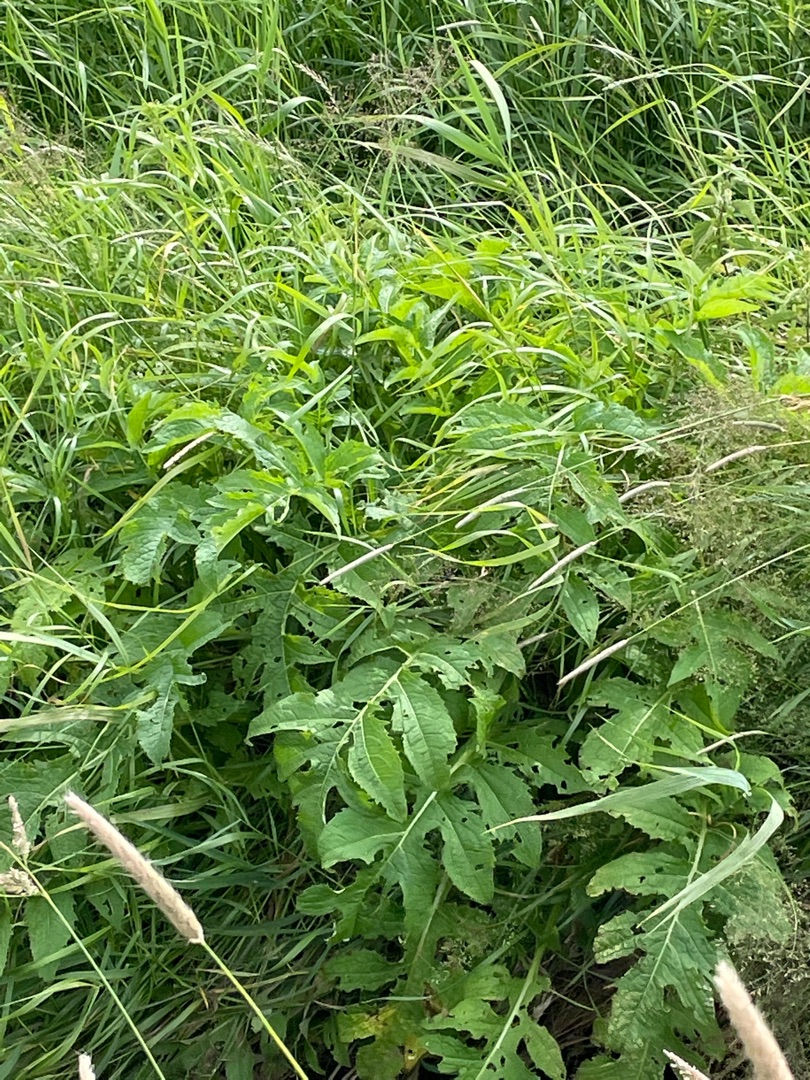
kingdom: Plantae
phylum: Tracheophyta
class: Magnoliopsida
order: Asterales
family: Asteraceae
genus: Cirsium
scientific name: Cirsium oleraceum
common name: Kål-tidsel
